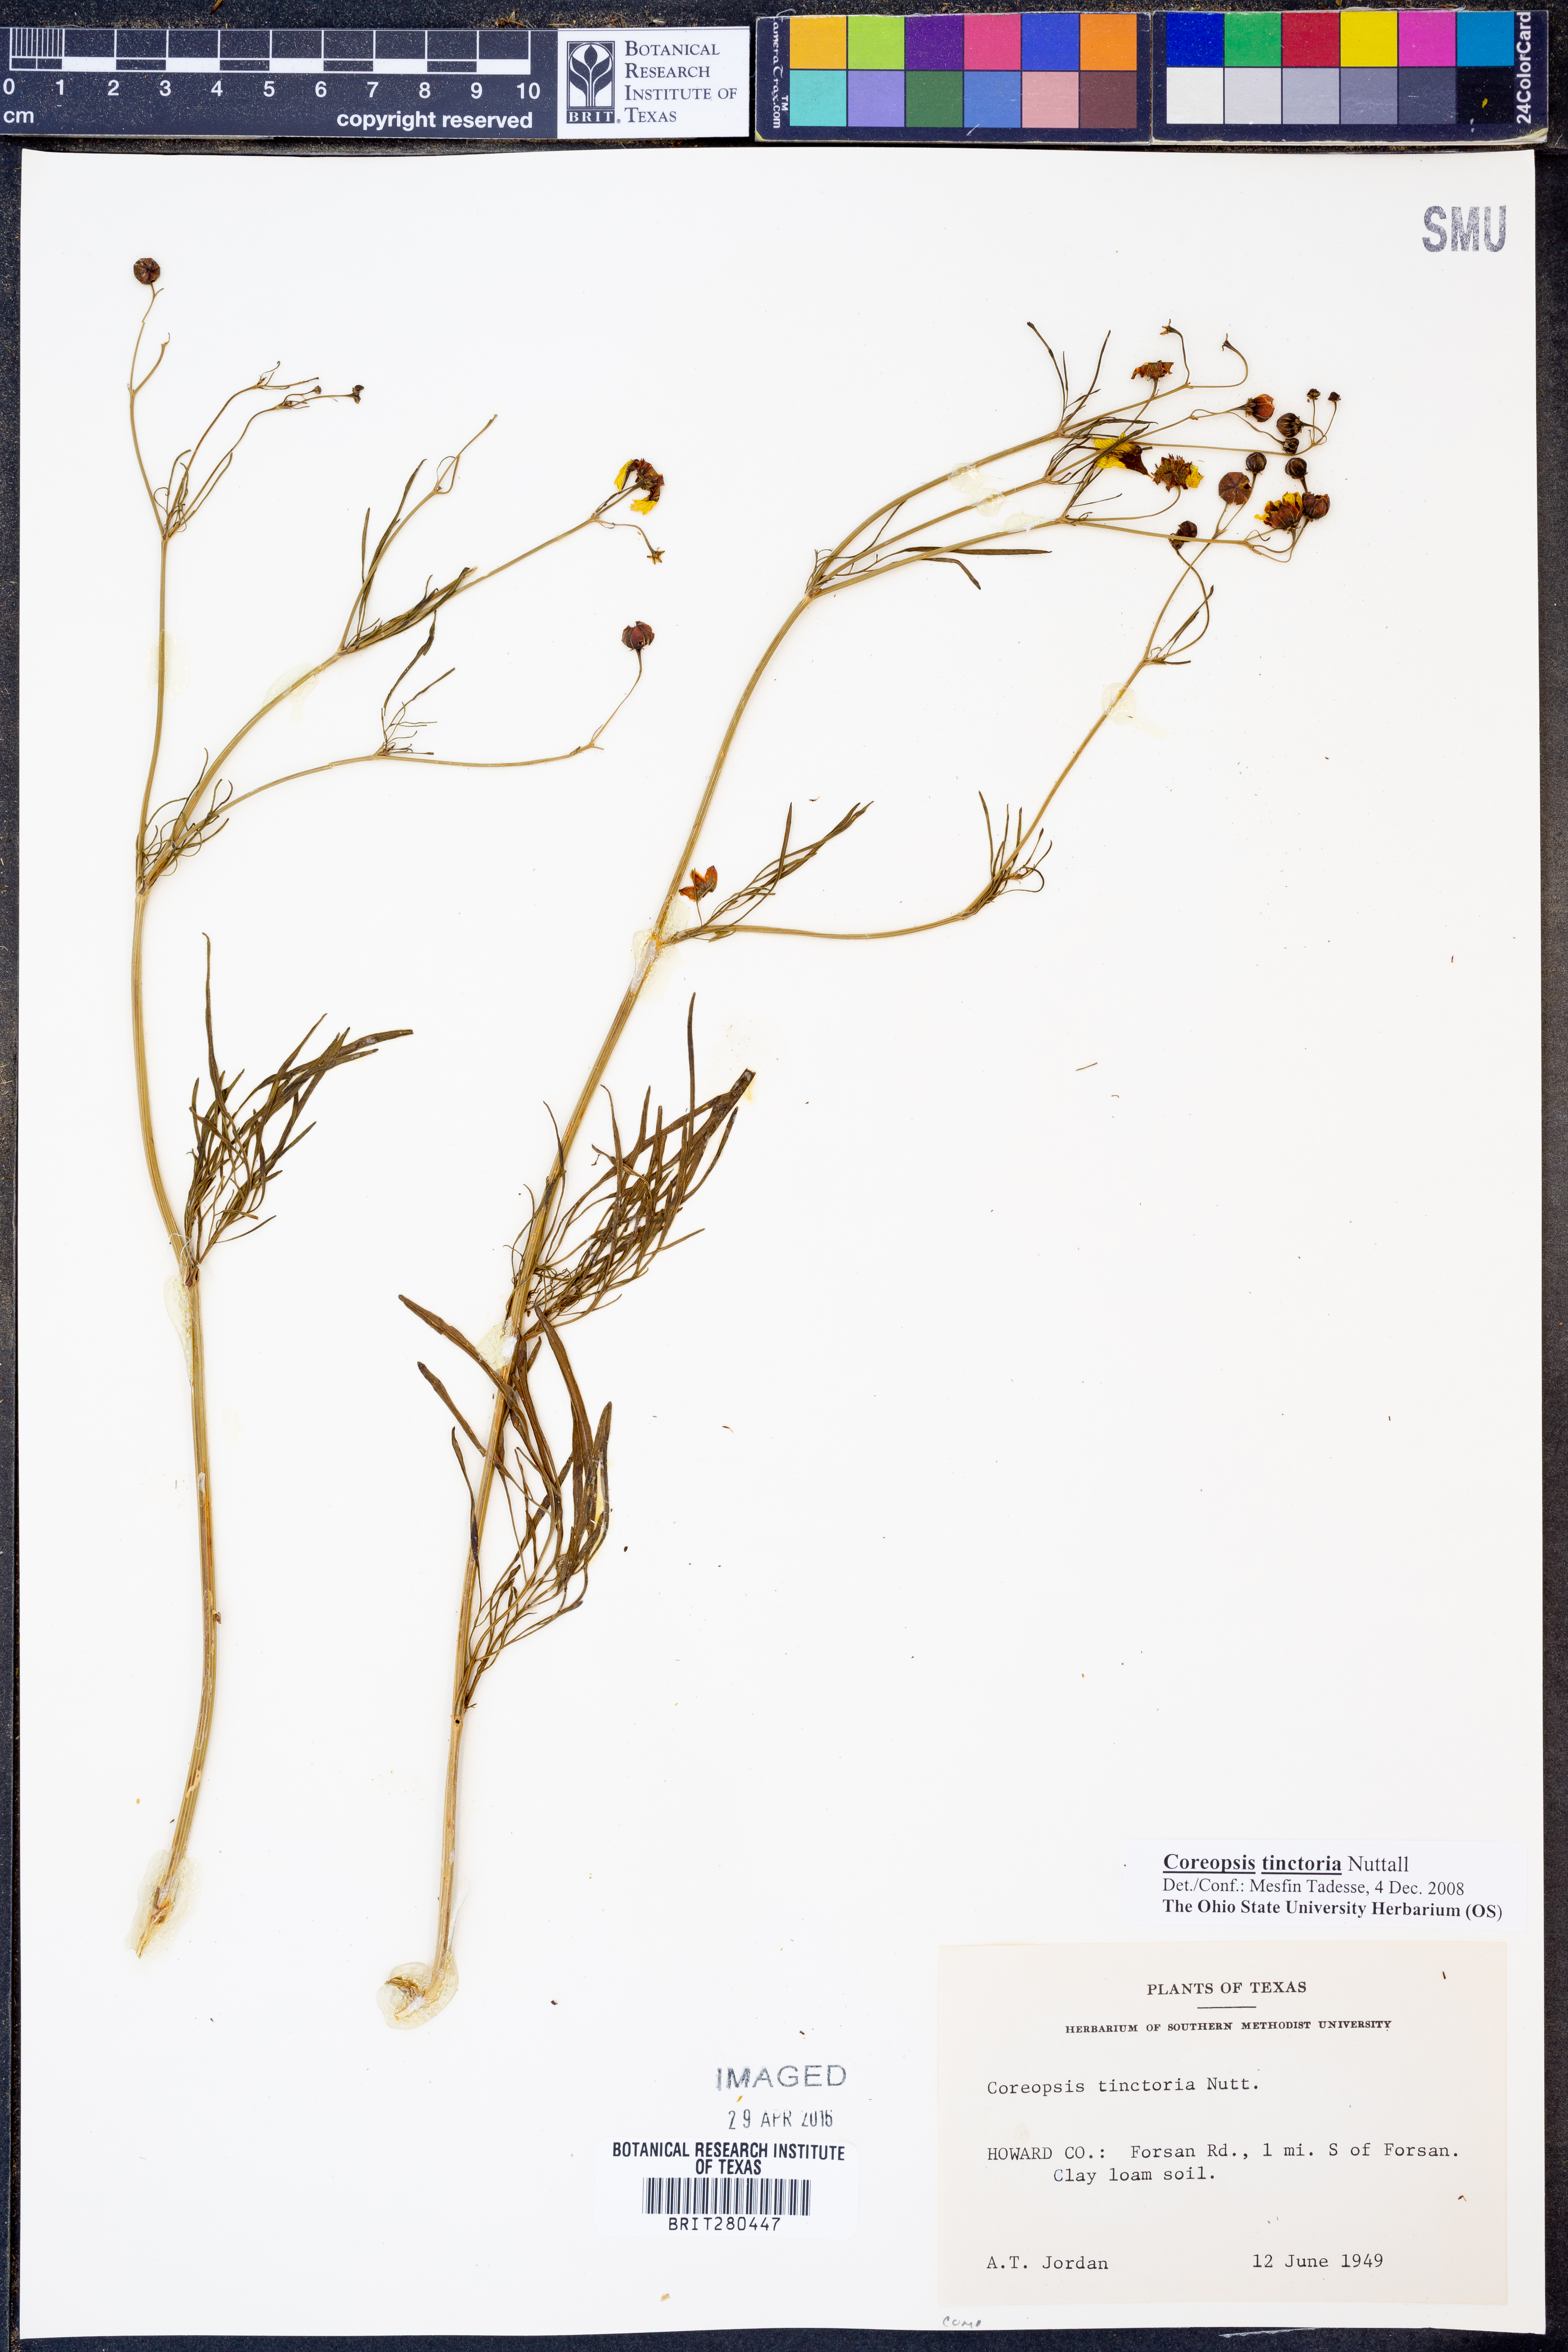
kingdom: Plantae
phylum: Tracheophyta
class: Magnoliopsida
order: Asterales
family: Asteraceae
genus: Coreopsis
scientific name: Coreopsis tinctoria
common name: Garden tickseed
